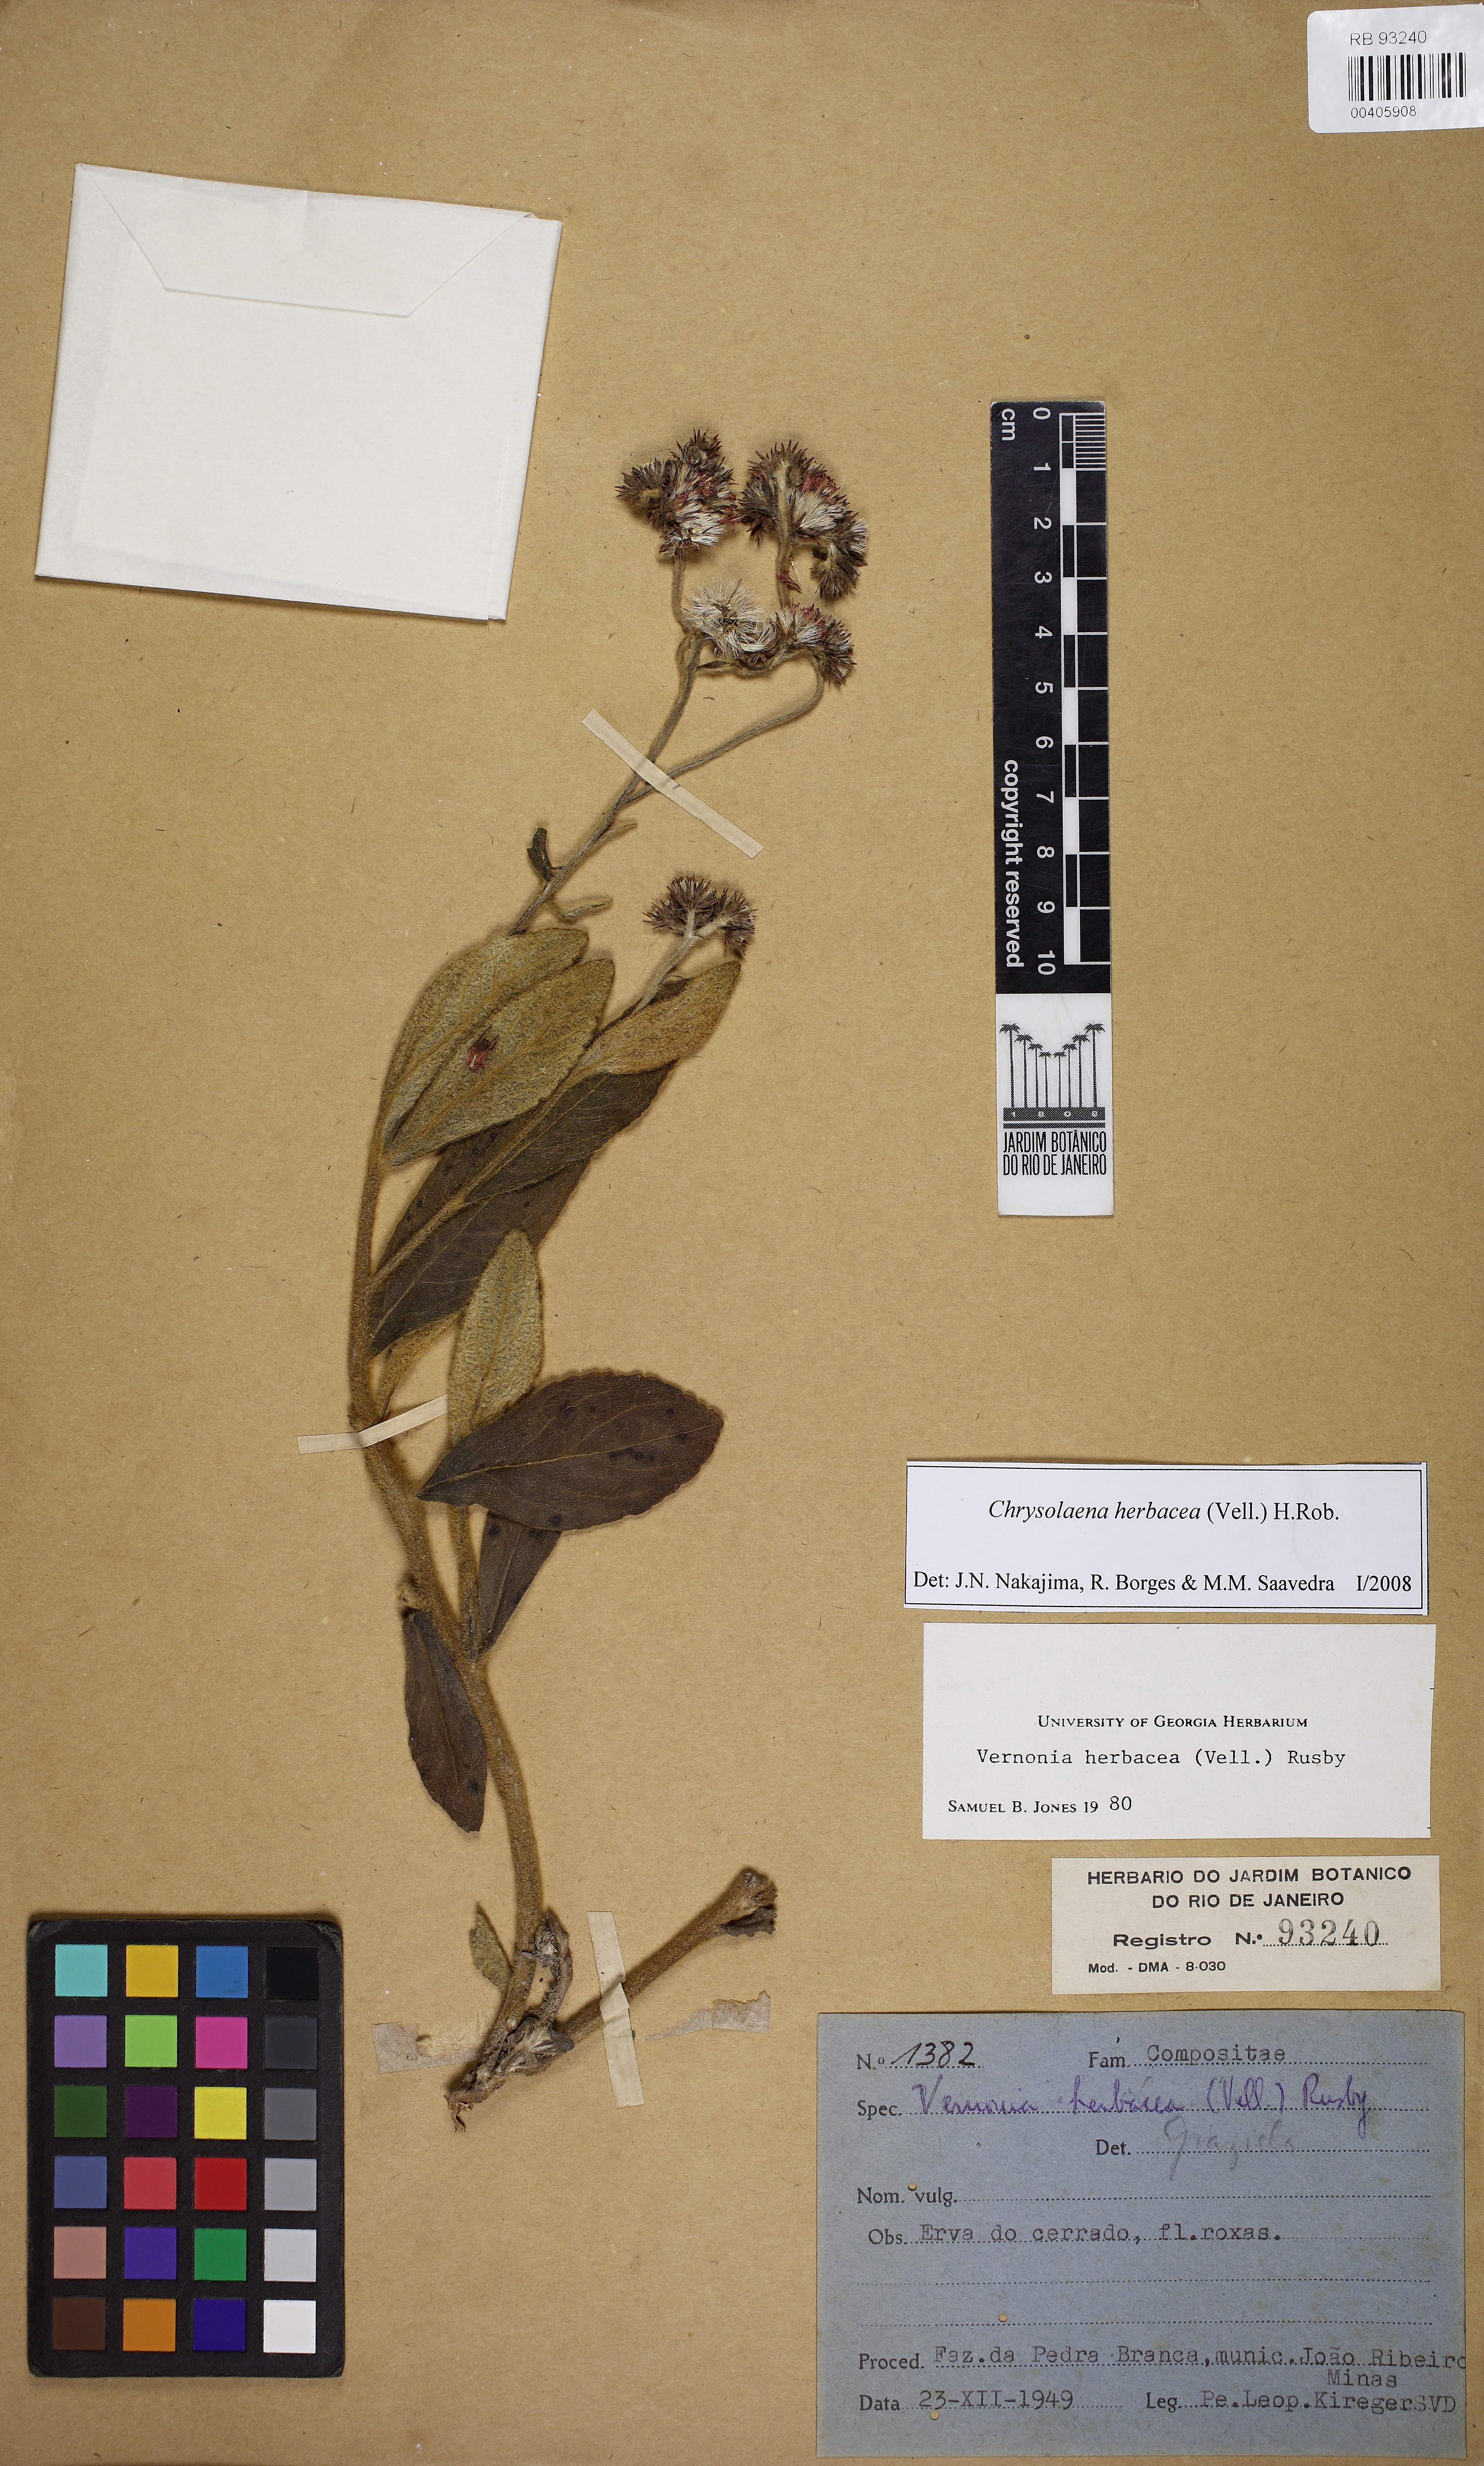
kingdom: Plantae
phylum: Tracheophyta
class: Magnoliopsida
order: Asterales
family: Asteraceae
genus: Chrysolaena
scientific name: Chrysolaena obovata
